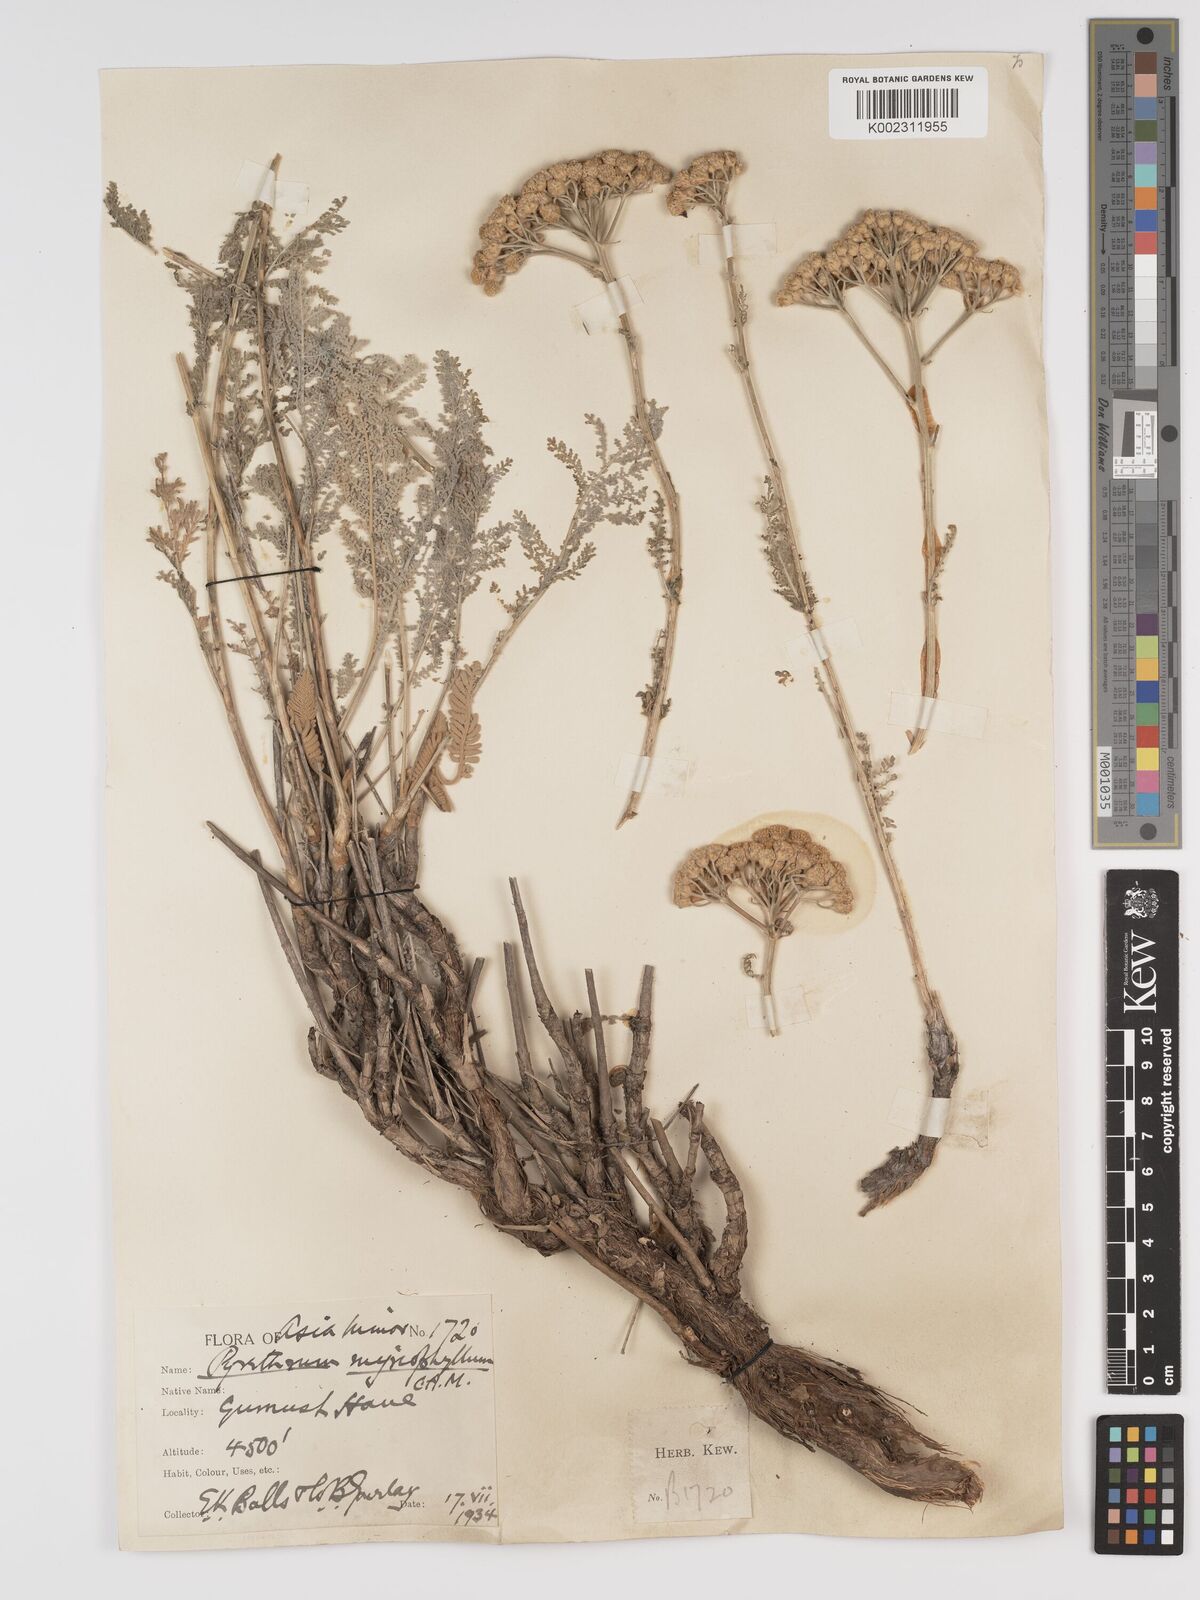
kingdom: Plantae
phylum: Tracheophyta
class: Magnoliopsida
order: Asterales
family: Asteraceae
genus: Tanacetum
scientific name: Tanacetum polycephalum
